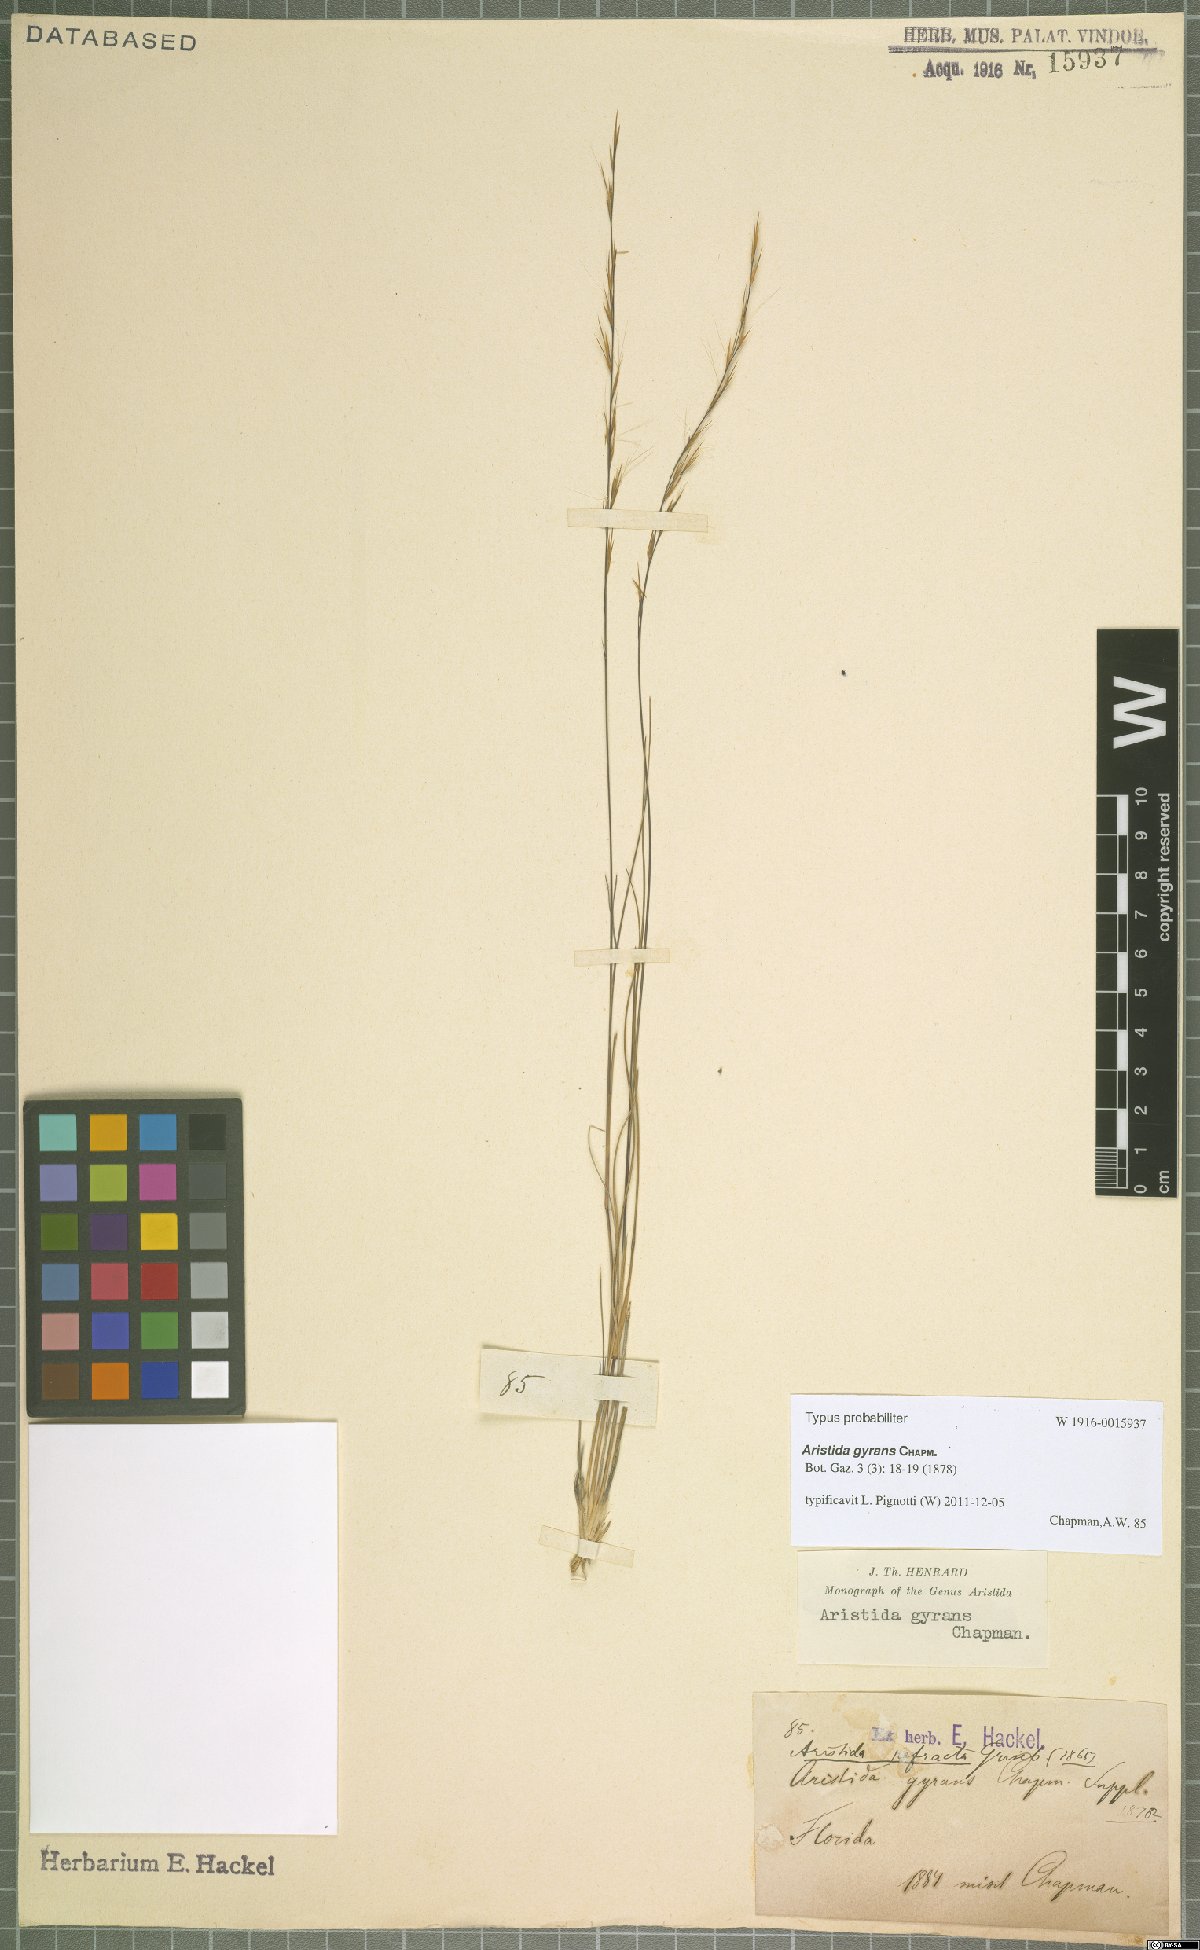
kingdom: Plantae
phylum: Tracheophyta
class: Liliopsida
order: Poales
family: Poaceae
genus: Aristida
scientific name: Aristida gyrans
